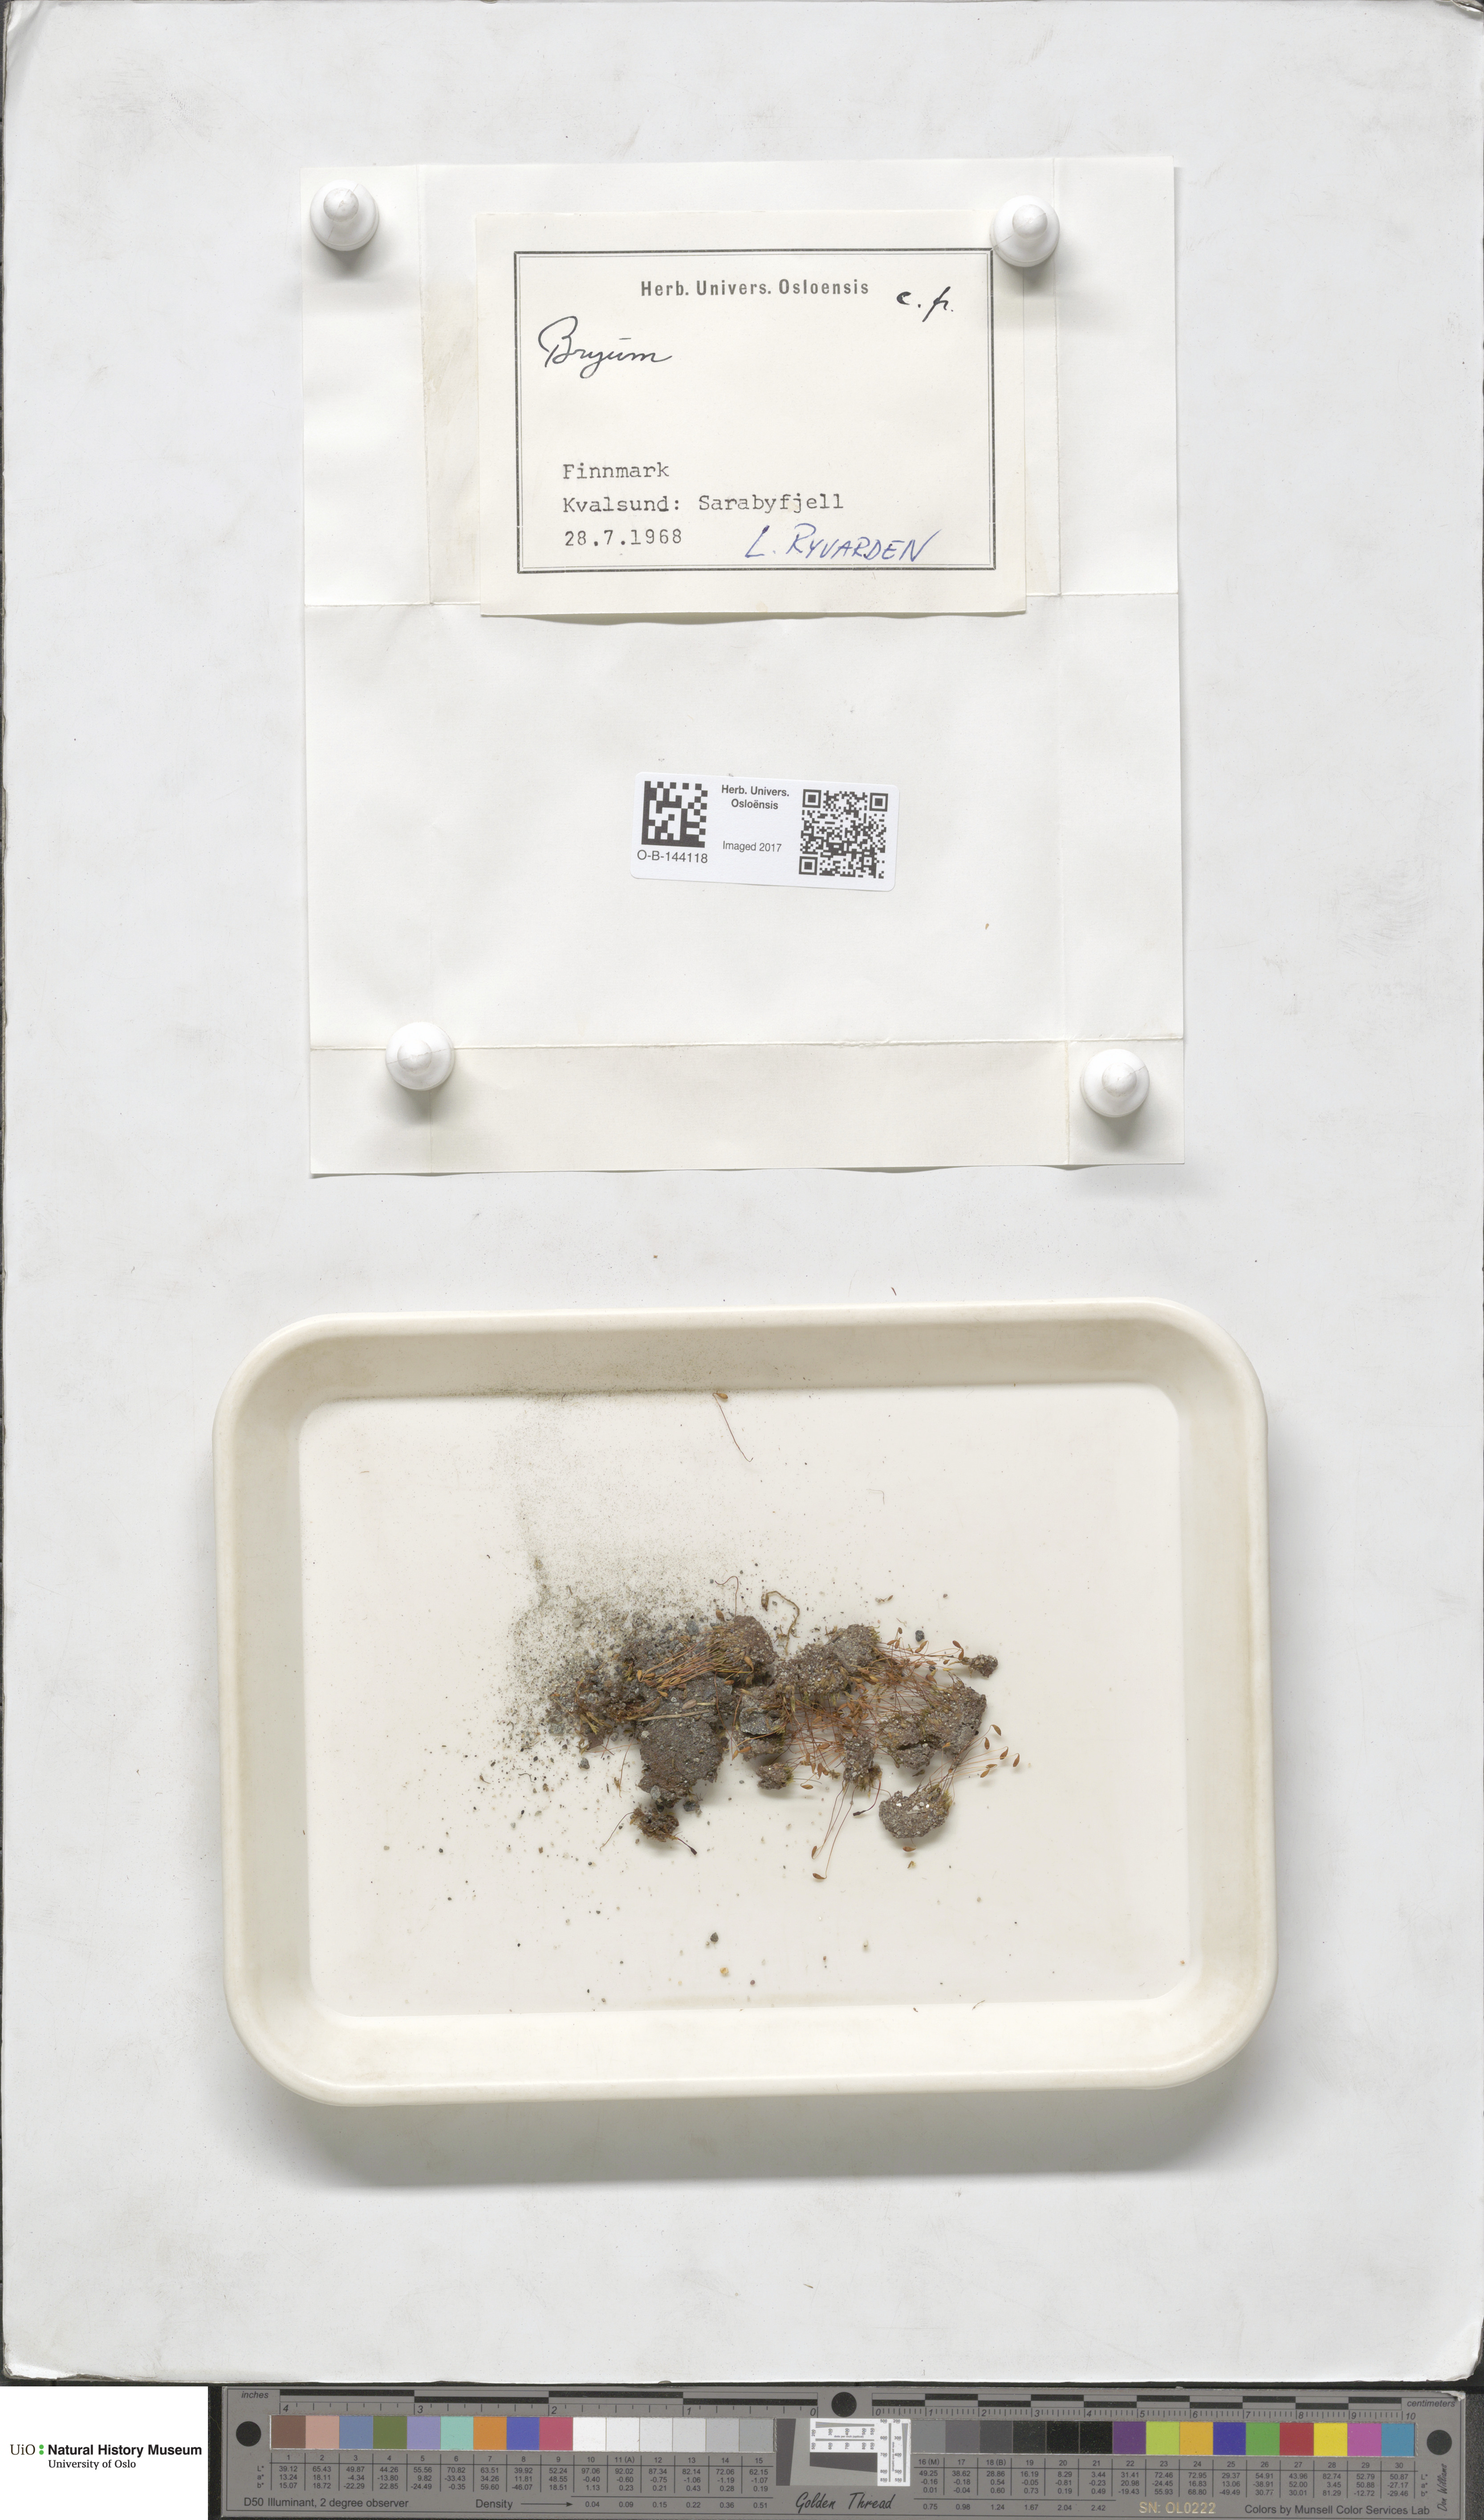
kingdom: Plantae
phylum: Bryophyta
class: Bryopsida
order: Bryales
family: Bryaceae
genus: Bryum
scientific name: Bryum
